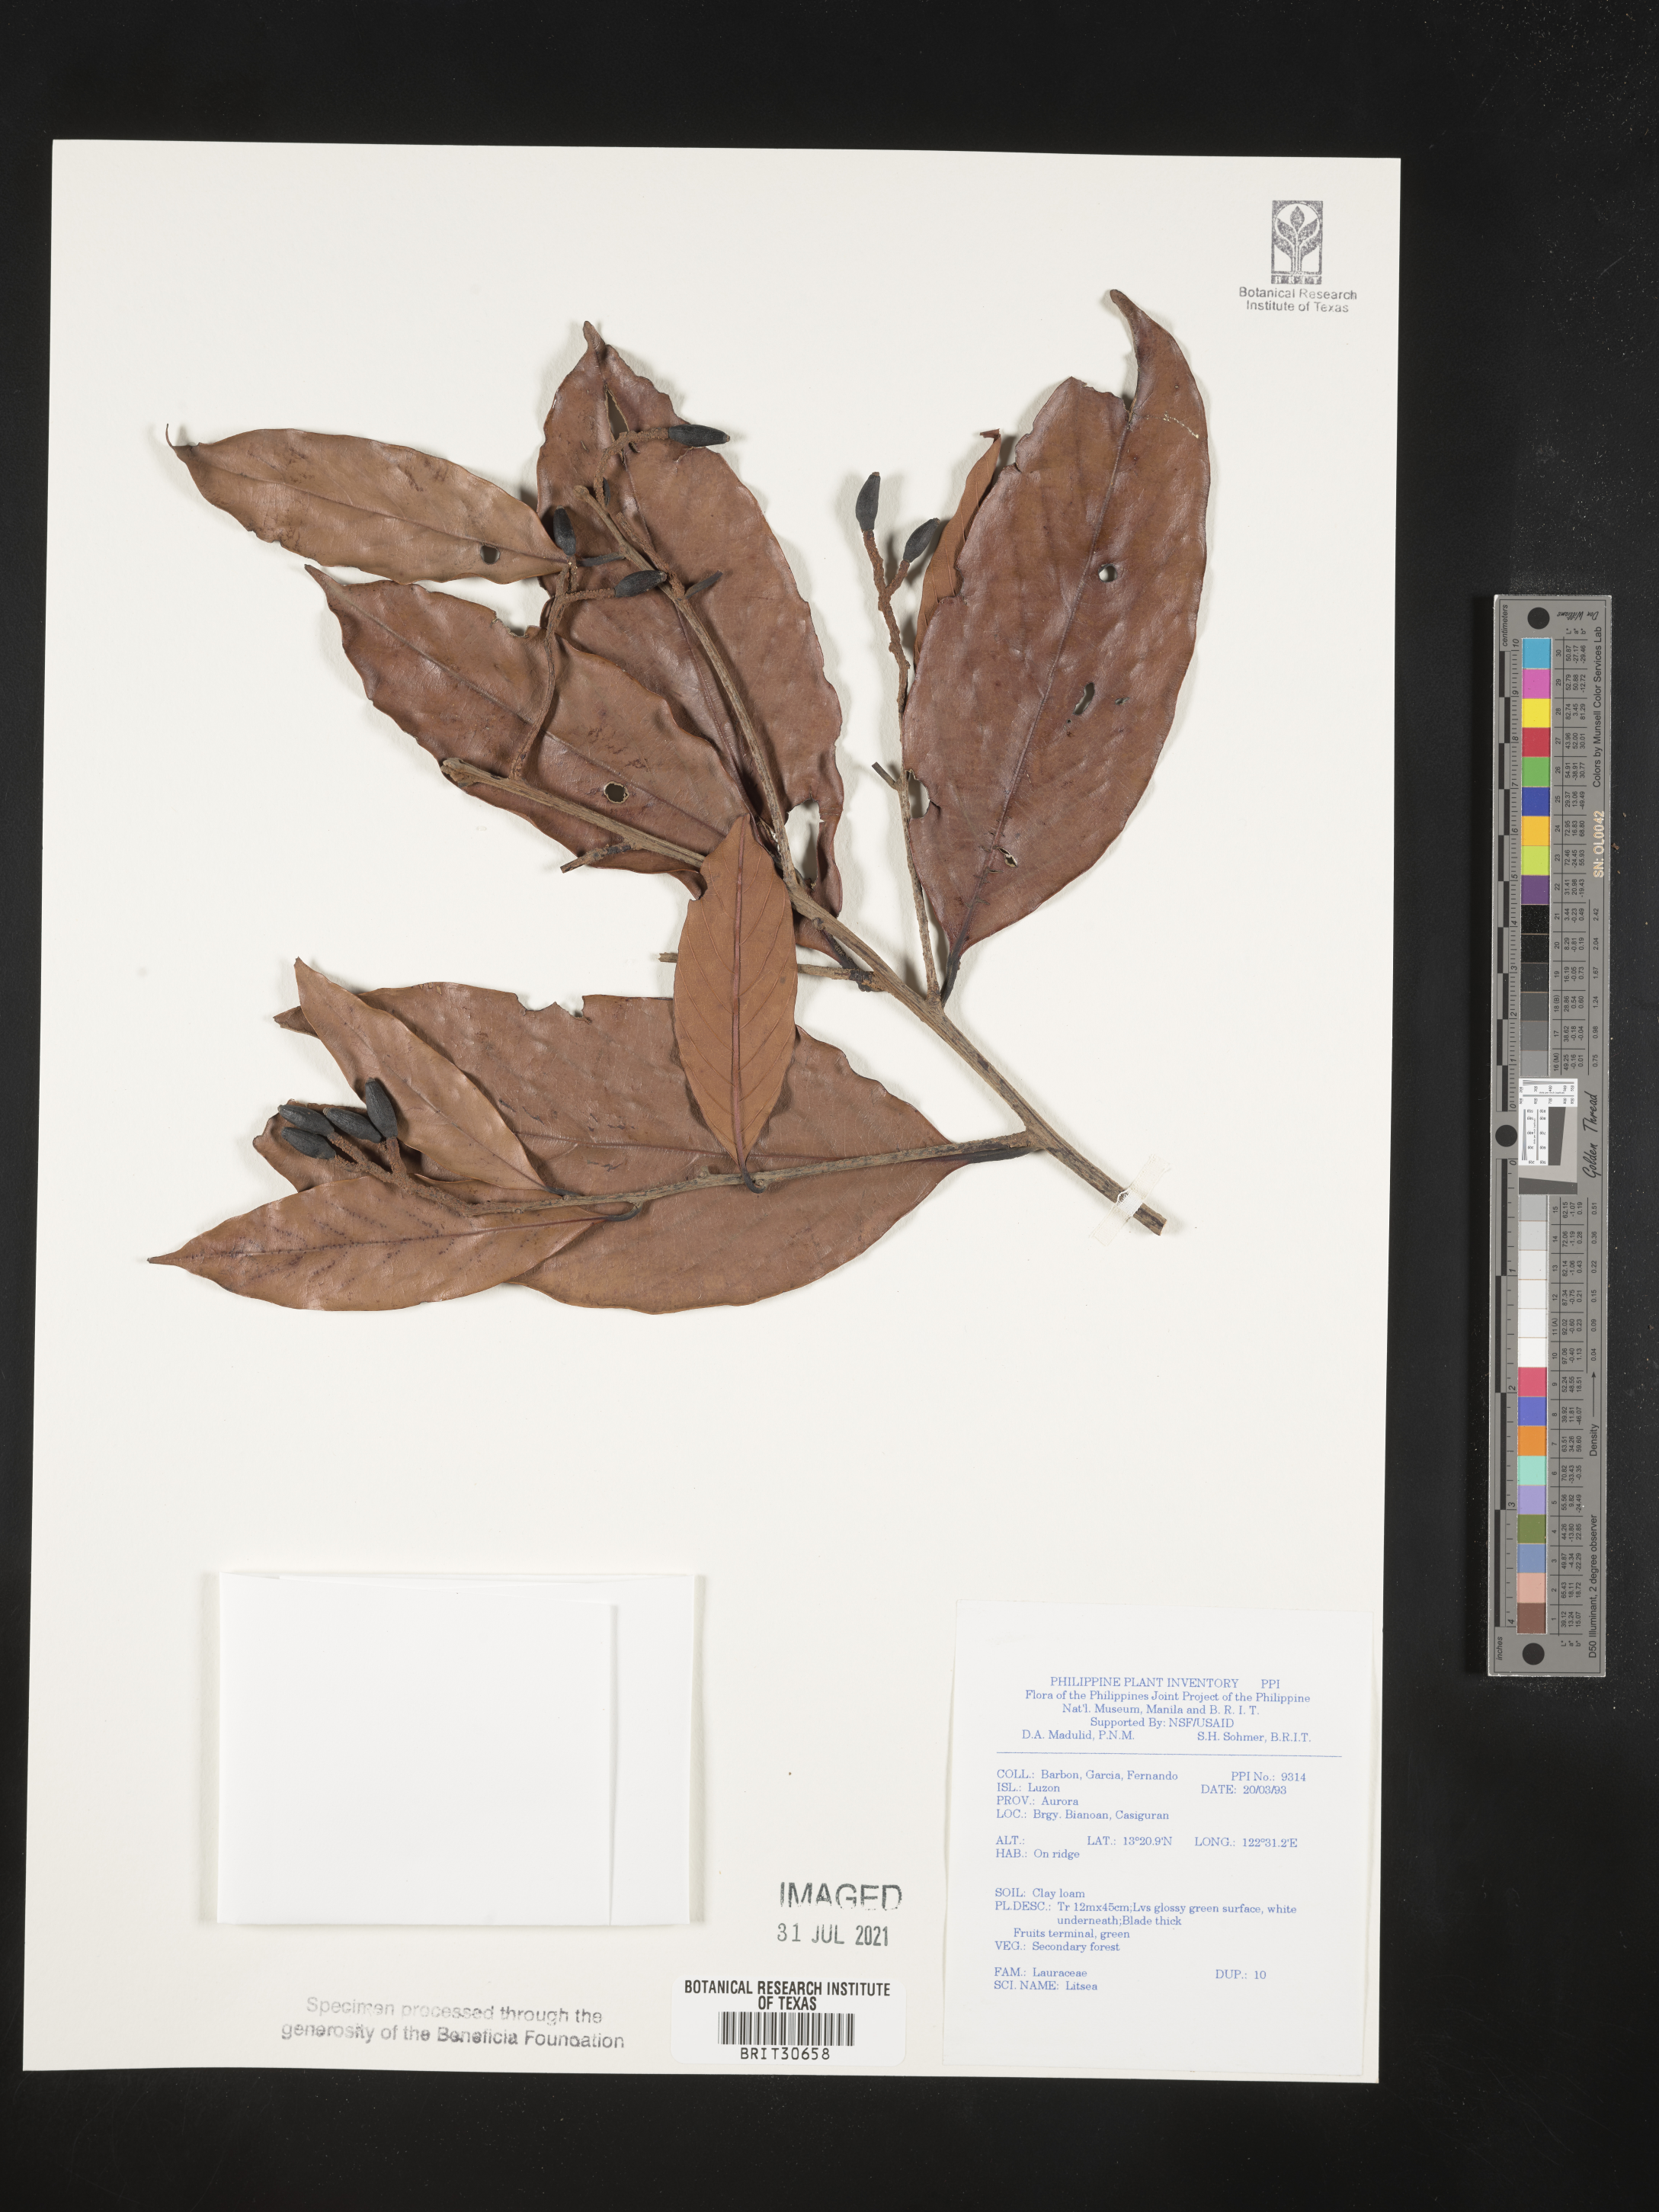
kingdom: Plantae
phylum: Tracheophyta
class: Magnoliopsida
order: Laurales
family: Lauraceae
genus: Litsea
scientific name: Litsea
